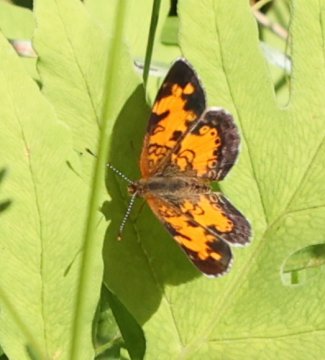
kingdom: Animalia
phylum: Arthropoda
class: Insecta
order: Lepidoptera
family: Nymphalidae
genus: Phyciodes
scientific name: Phyciodes
